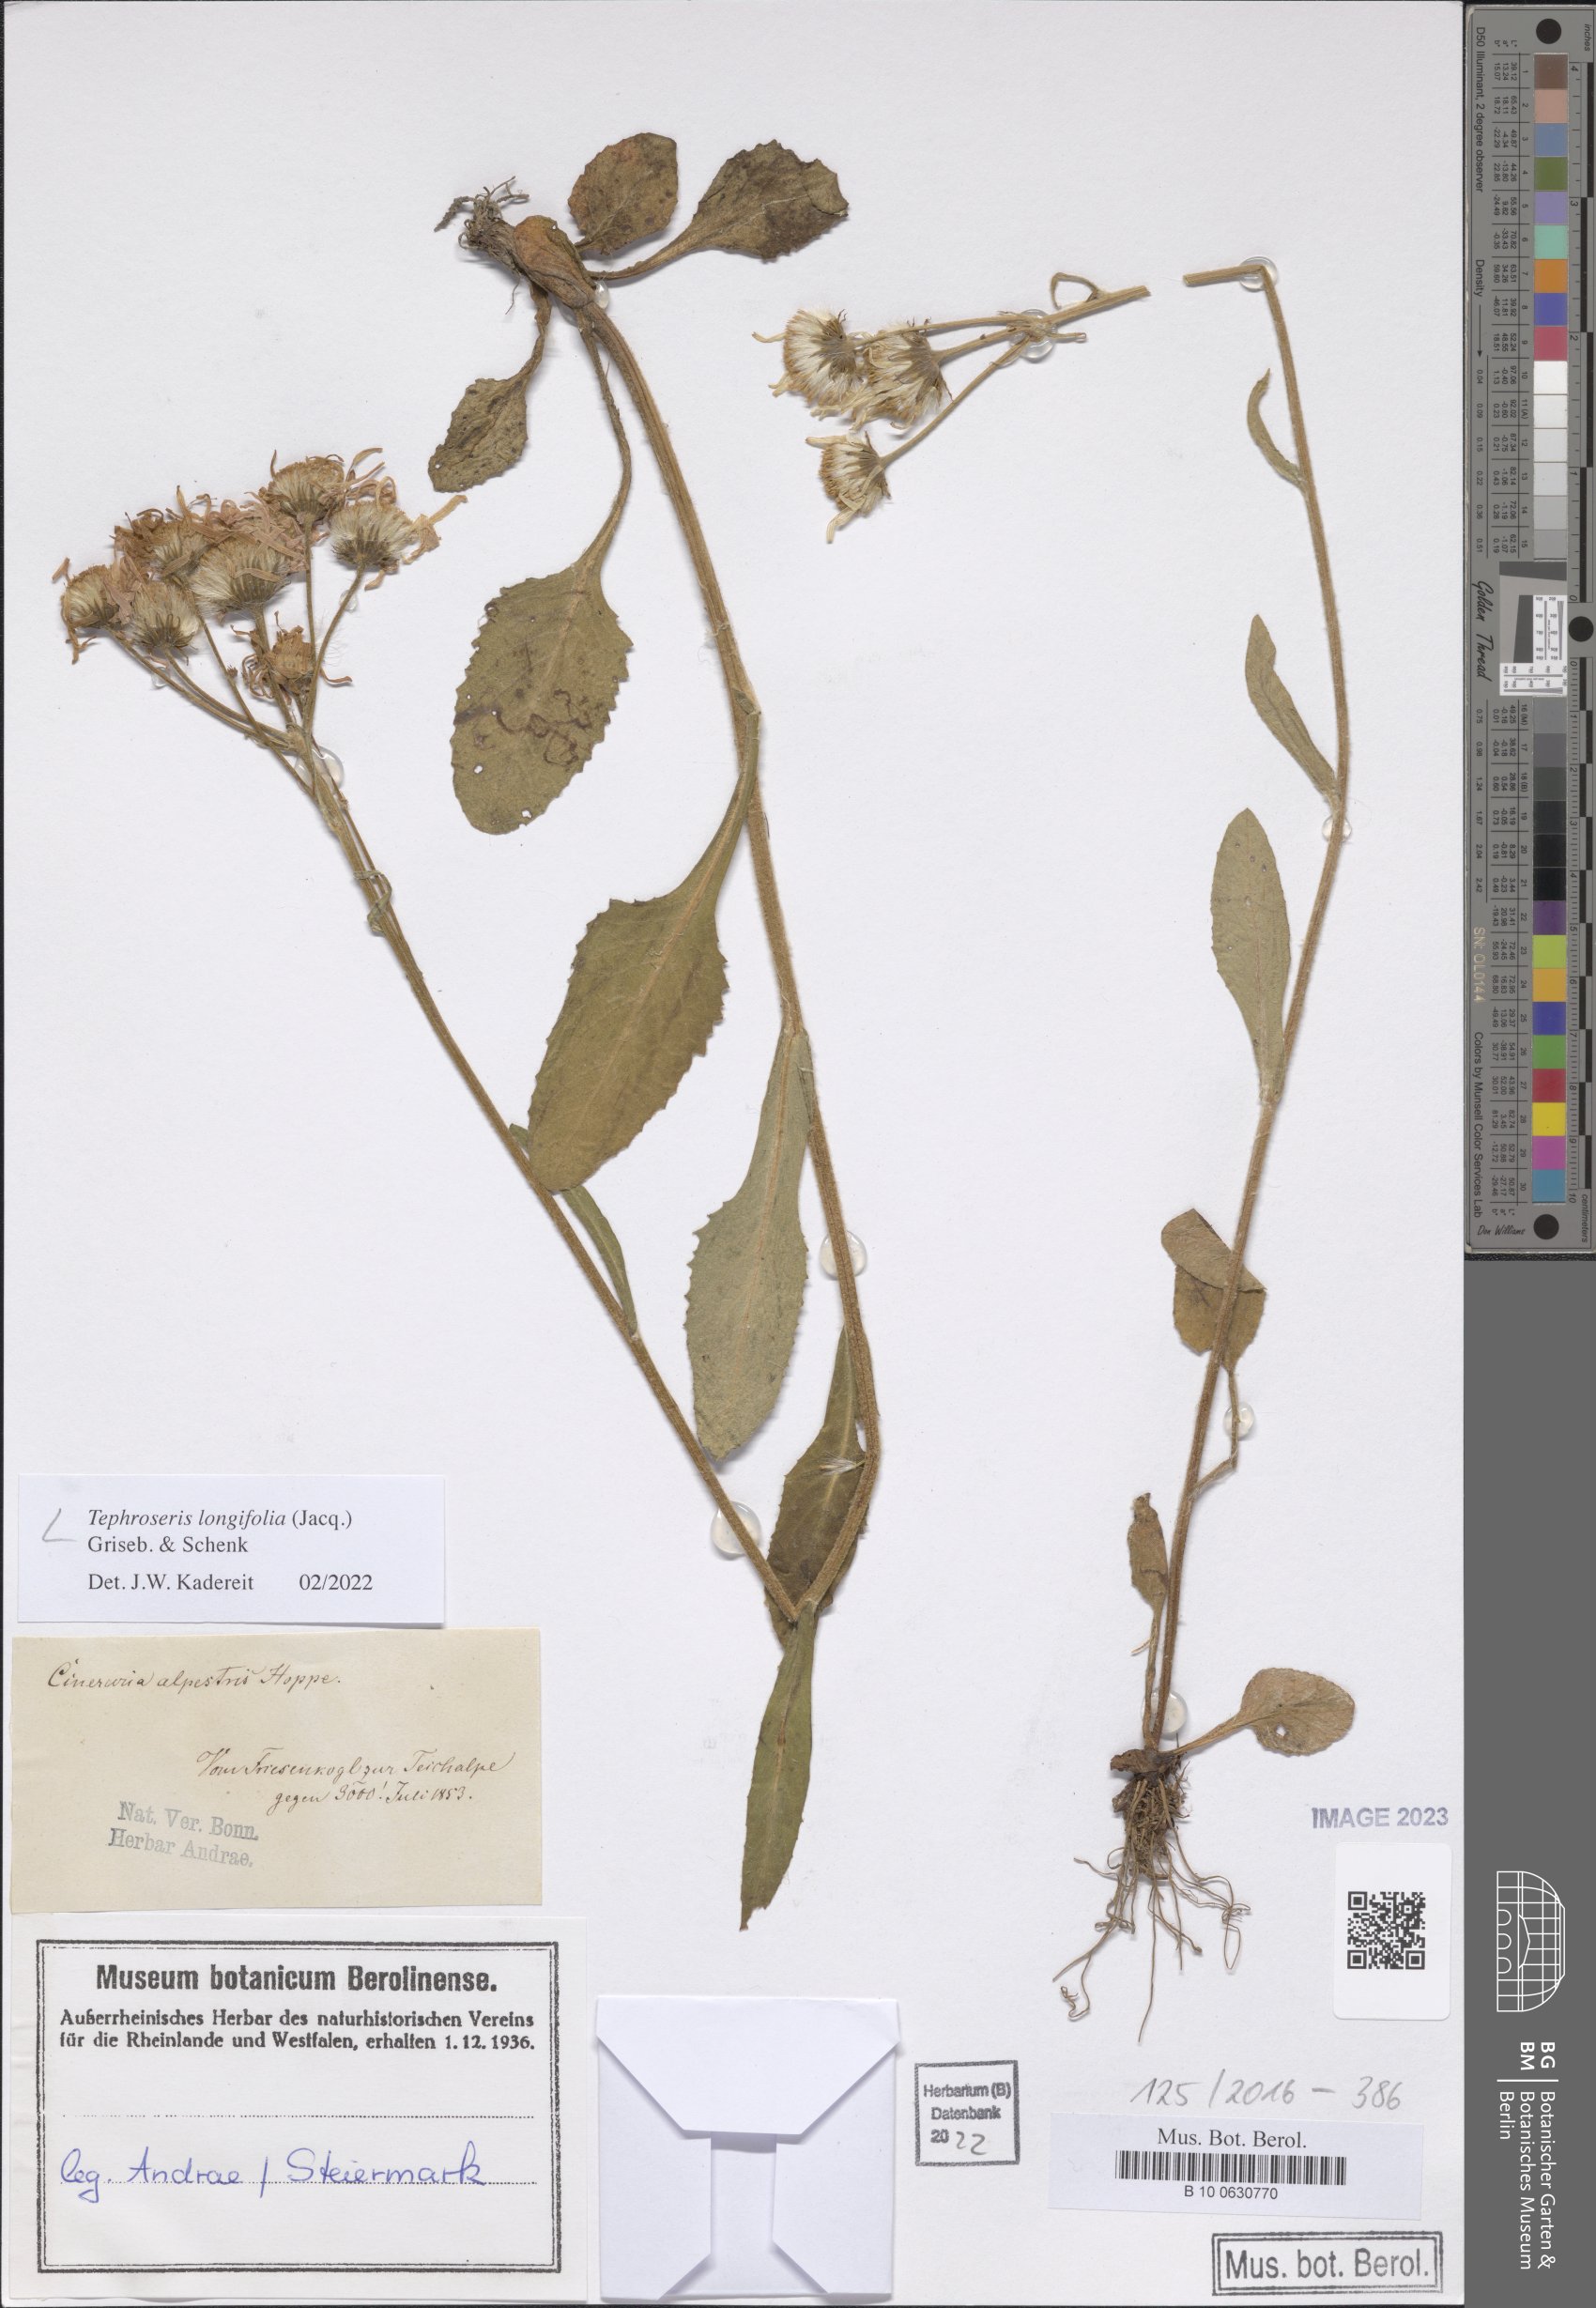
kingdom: Plantae
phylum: Tracheophyta
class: Magnoliopsida
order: Asterales
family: Asteraceae
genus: Tephroseris
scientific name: Tephroseris longifolia
